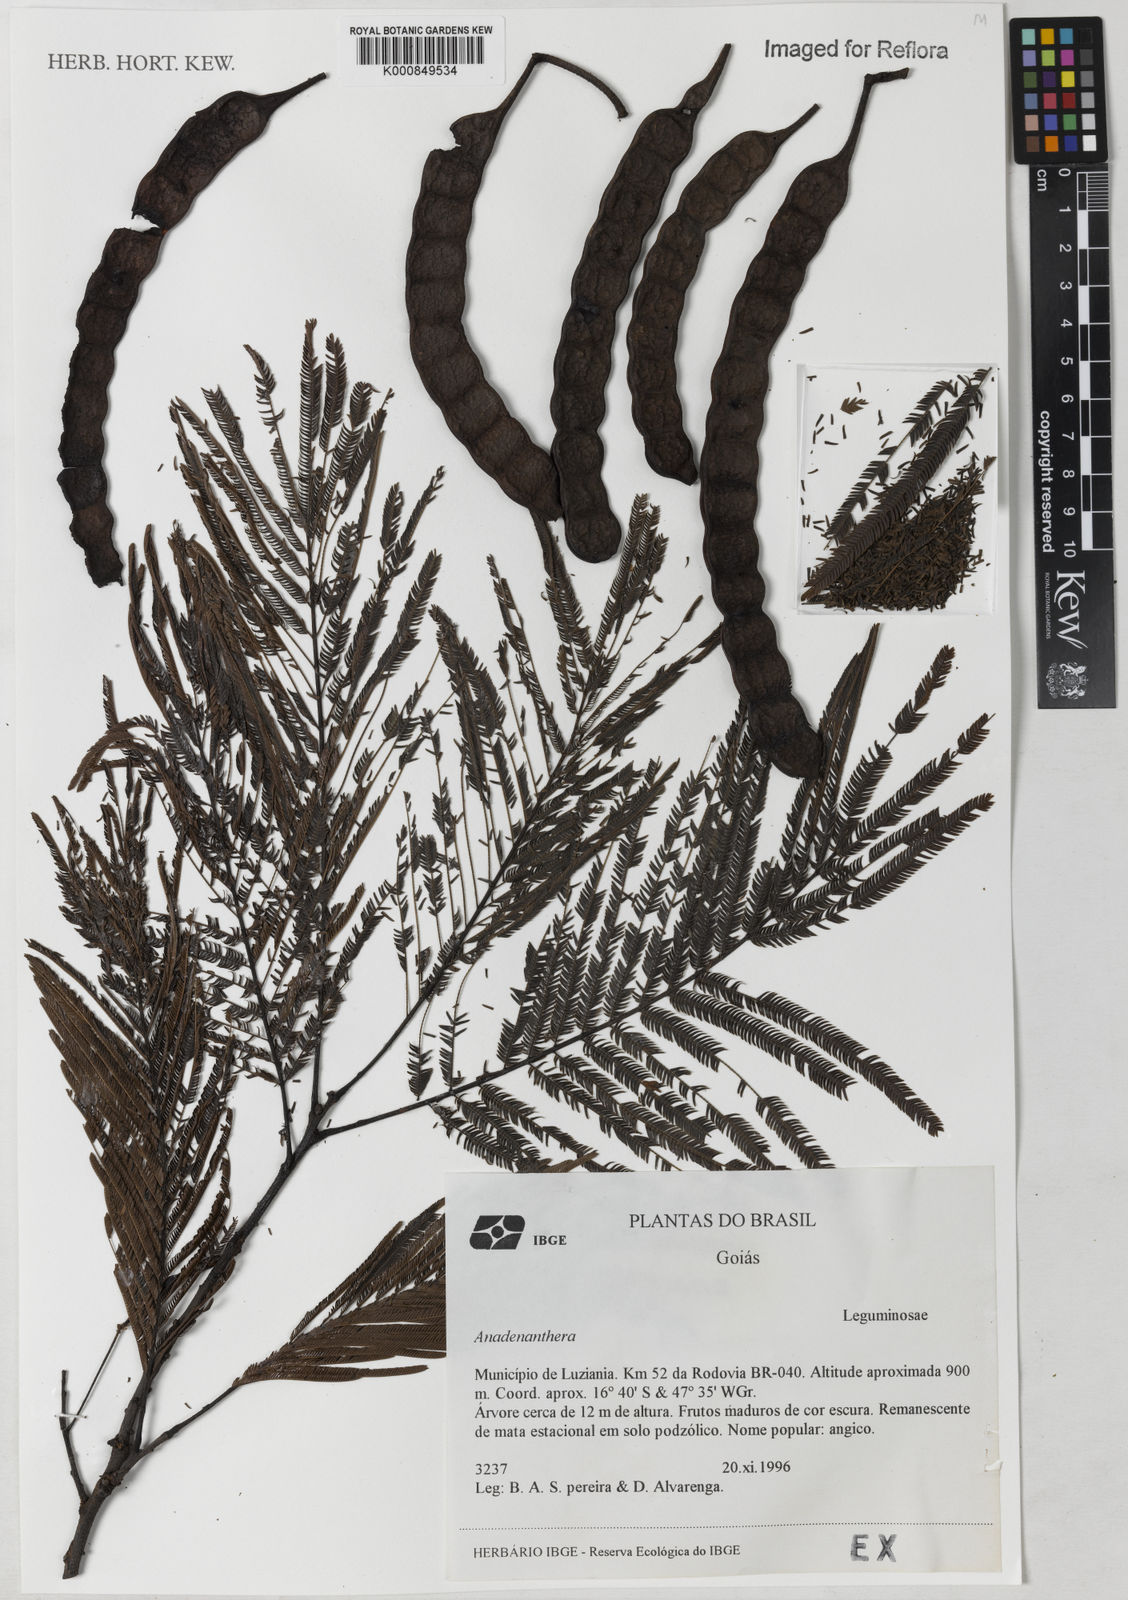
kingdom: Plantae
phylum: Tracheophyta
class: Magnoliopsida
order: Fabales
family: Fabaceae
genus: Anadenanthera
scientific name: Anadenanthera
